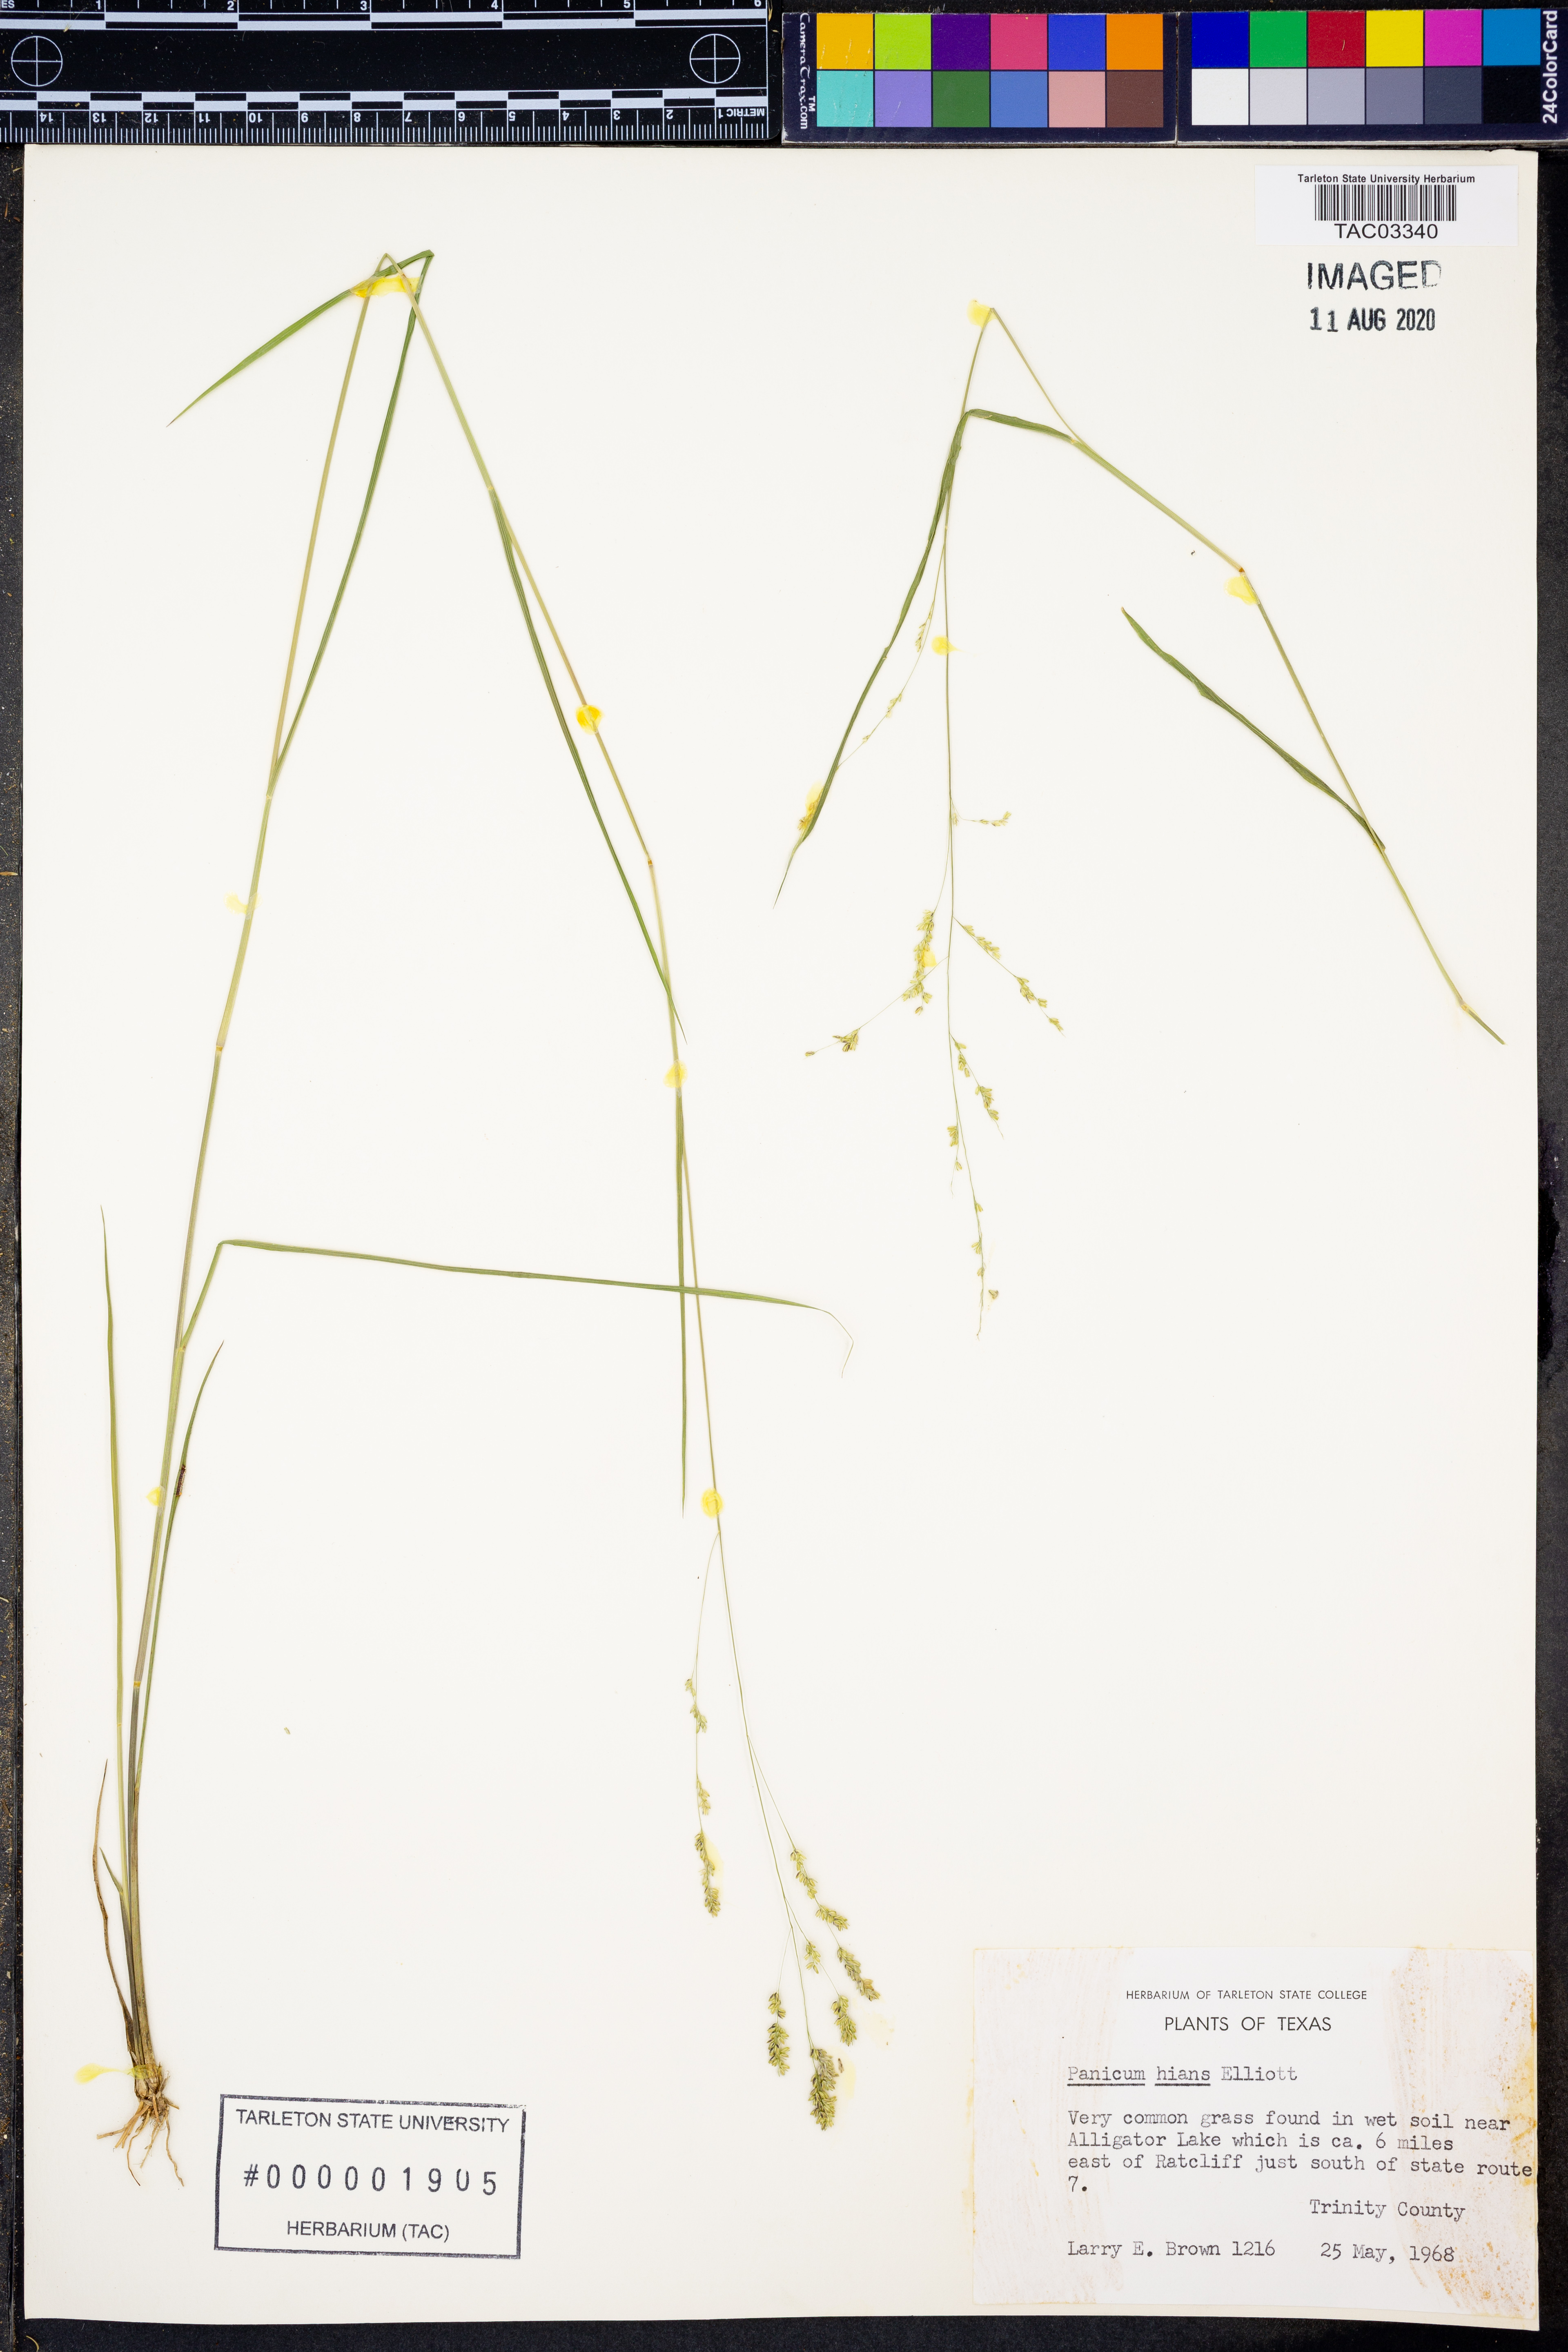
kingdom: Plantae
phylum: Tracheophyta
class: Liliopsida
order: Poales
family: Poaceae
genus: Coleataenia
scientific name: Coleataenia stenodes
